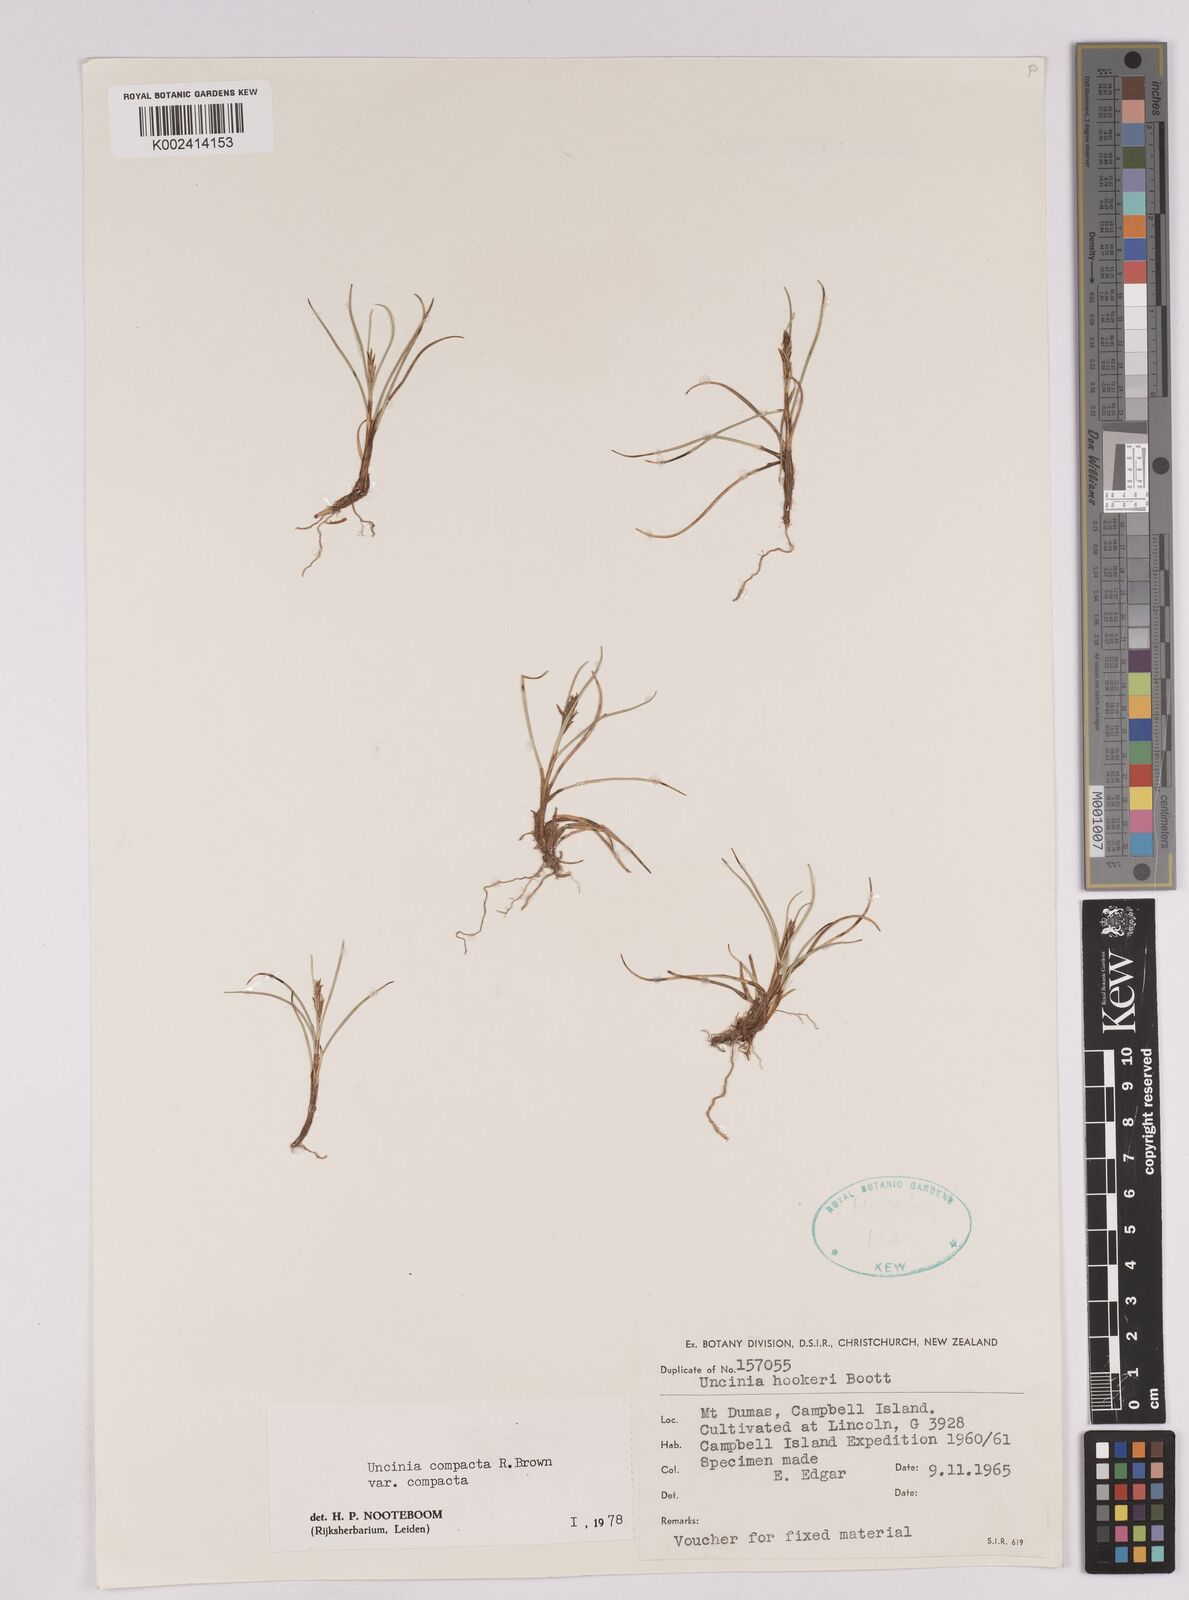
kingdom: Plantae
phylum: Tracheophyta
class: Liliopsida
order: Poales
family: Cyperaceae
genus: Carex
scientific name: Carex austrocompacta
